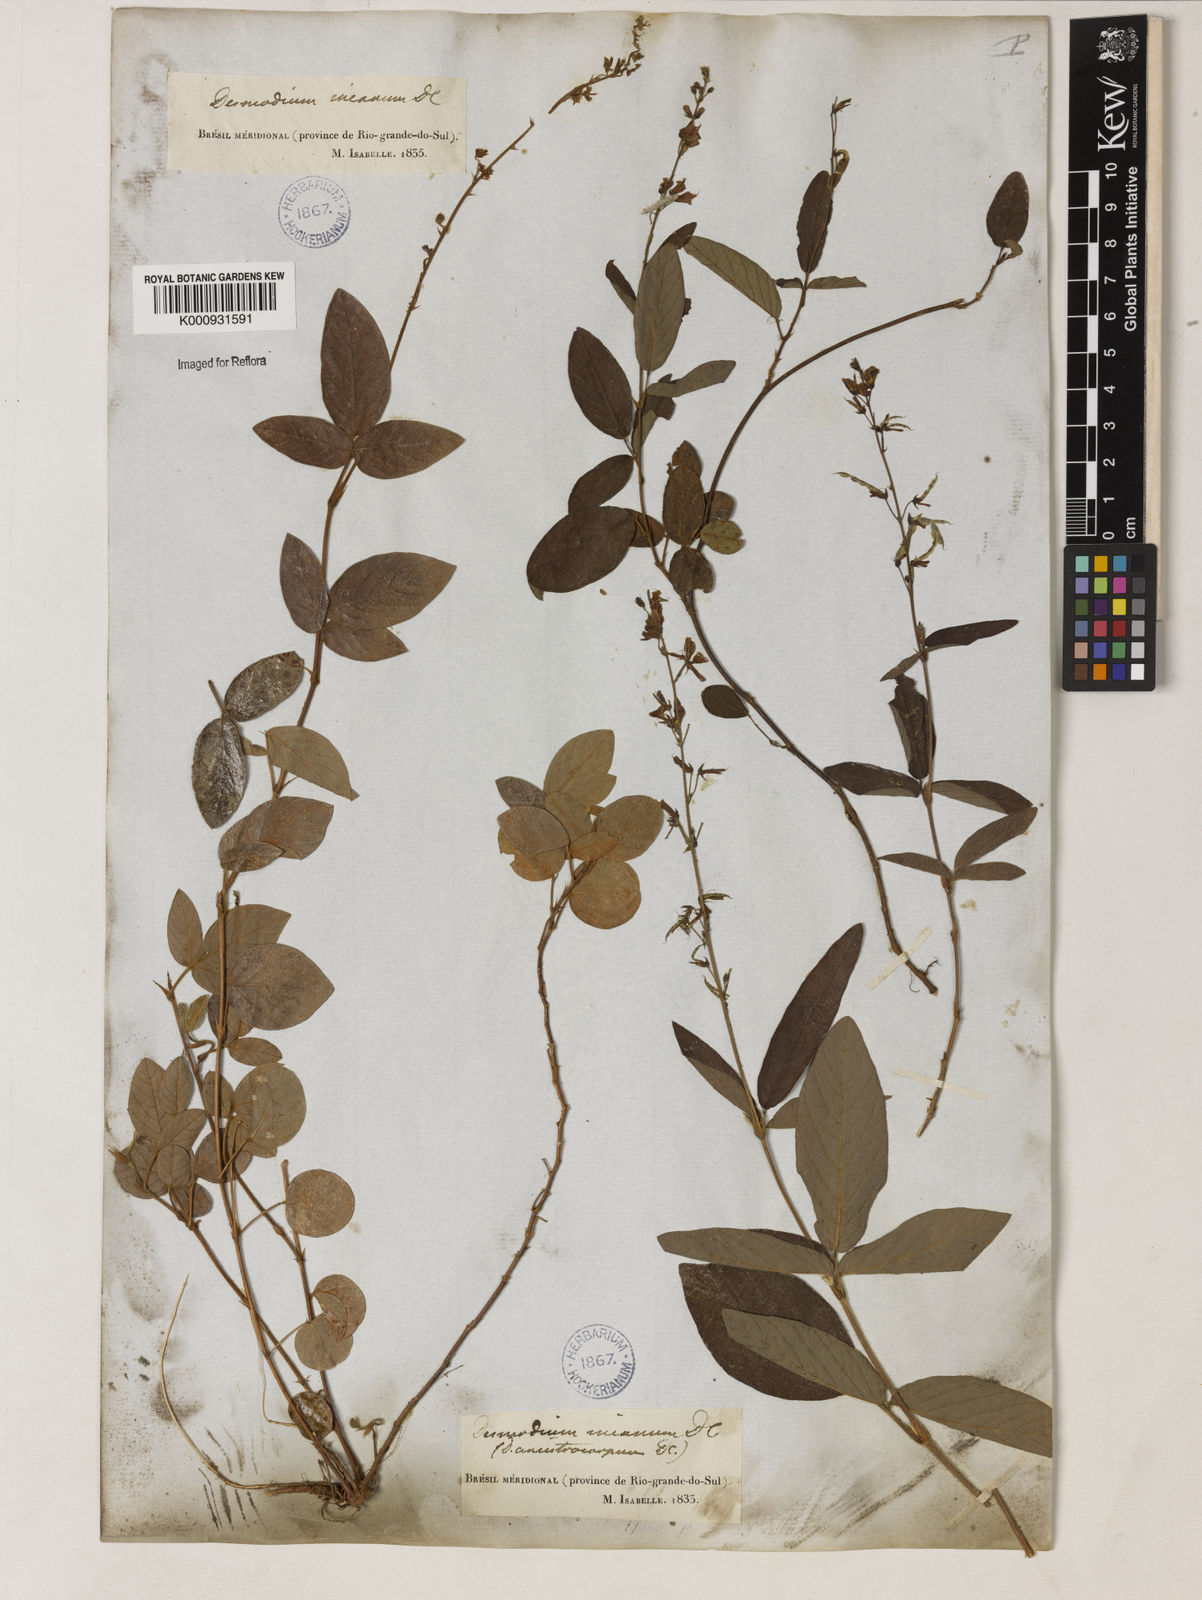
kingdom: Plantae
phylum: Tracheophyta
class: Magnoliopsida
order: Fabales
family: Fabaceae
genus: Desmodium
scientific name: Desmodium incanum
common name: Tickclover
